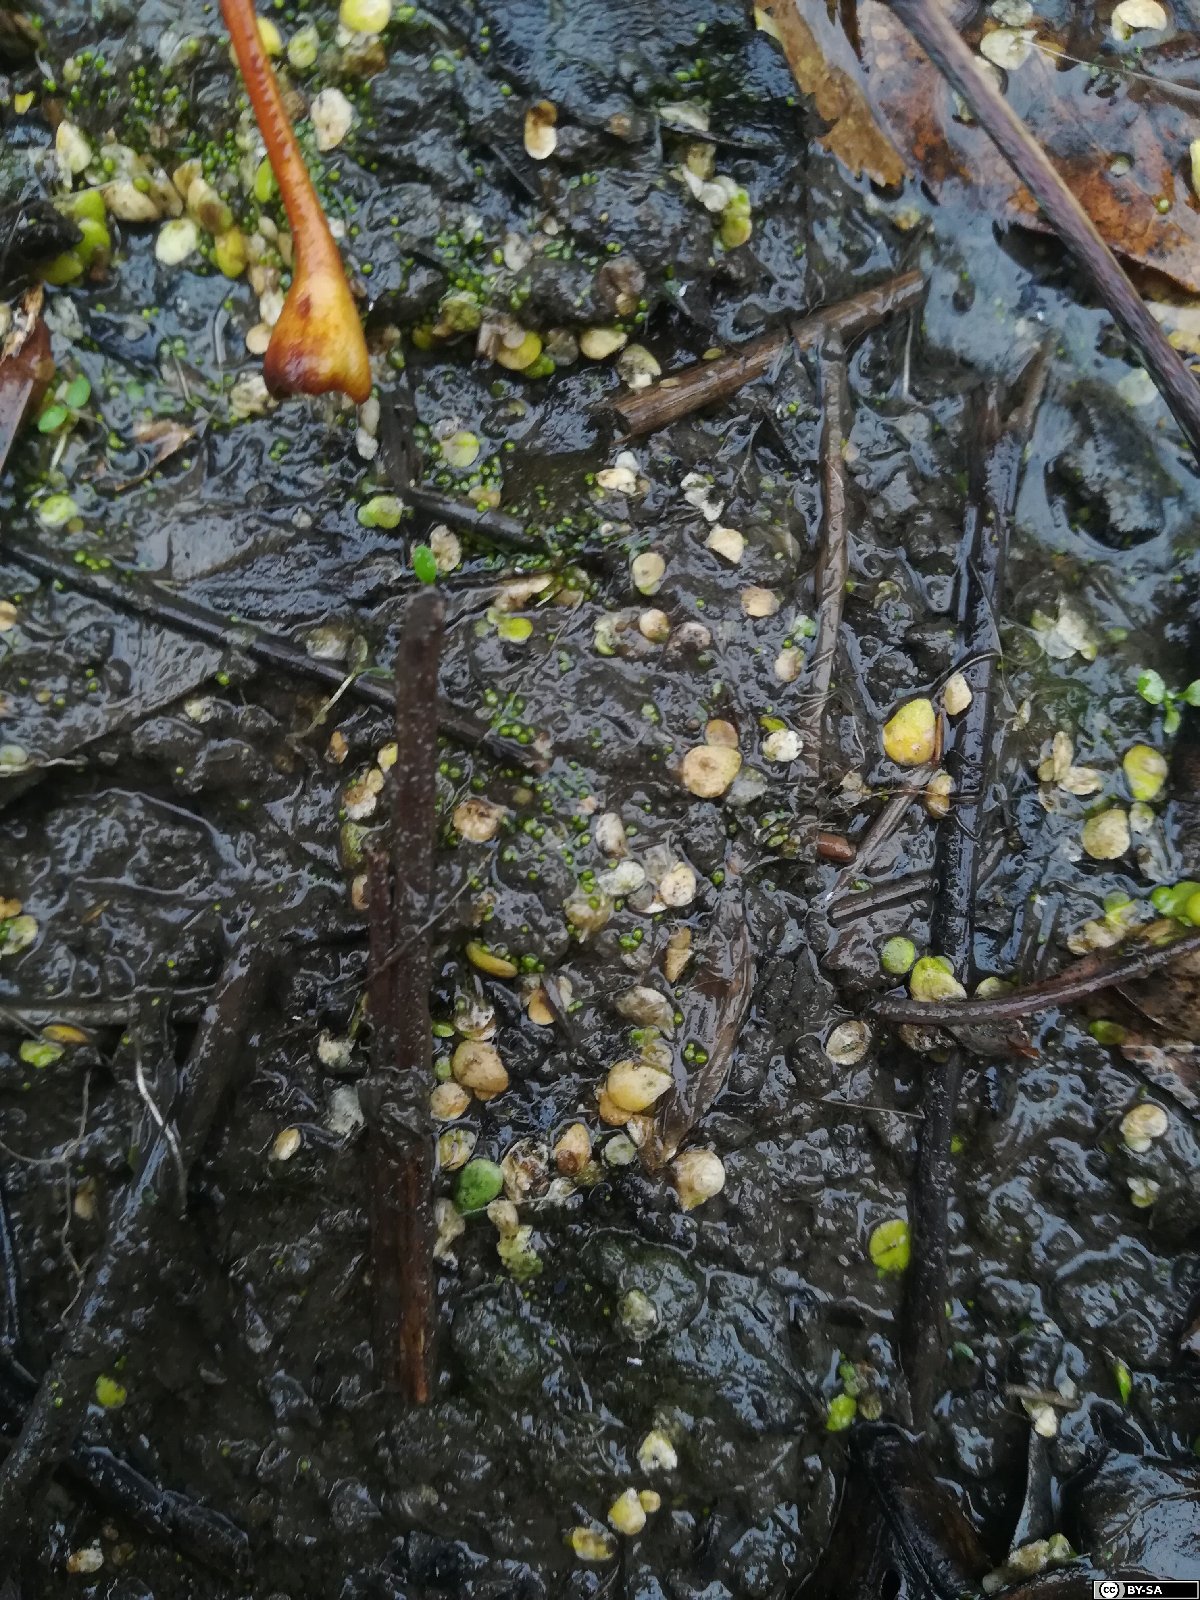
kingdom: Plantae
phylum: Tracheophyta
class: Liliopsida
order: Alismatales
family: Araceae
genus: Wolffia
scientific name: Wolffia columbiana
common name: Columbia watermeal
